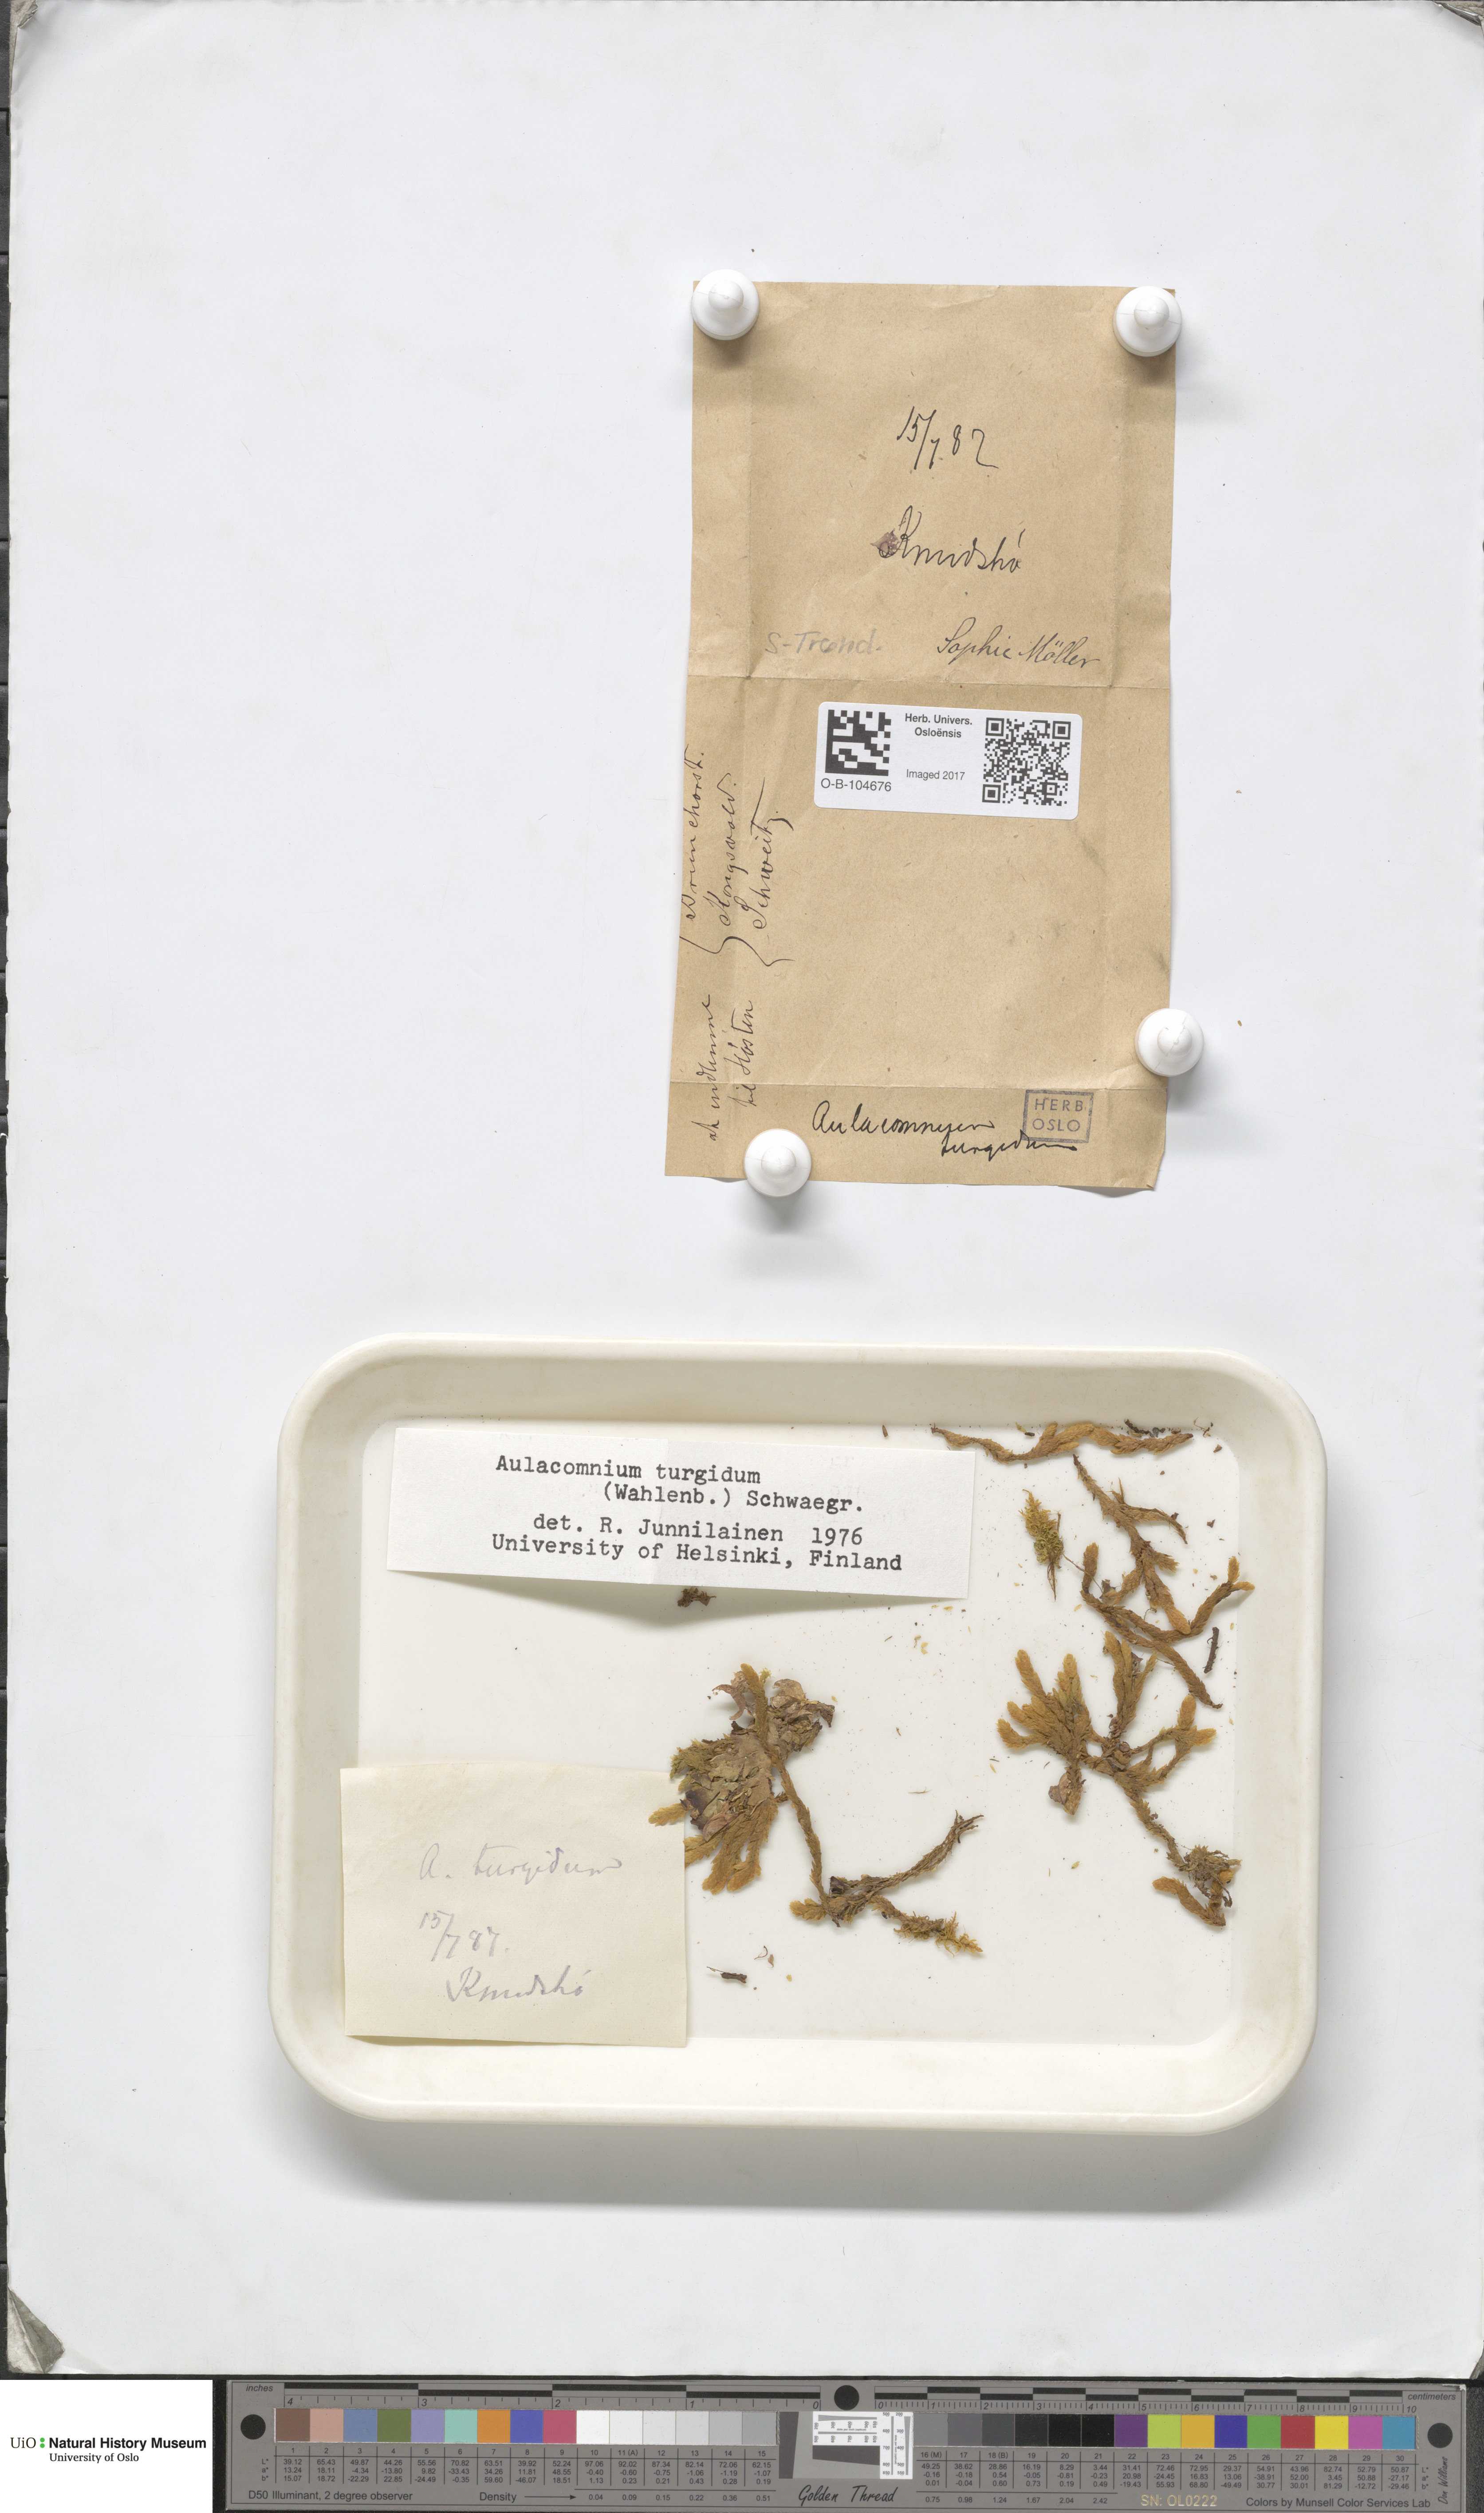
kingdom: Plantae
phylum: Bryophyta
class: Bryopsida
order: Aulacomniales
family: Aulacomniaceae
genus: Aulacomnium
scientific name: Aulacomnium turgidum
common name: Mountain groove moss
